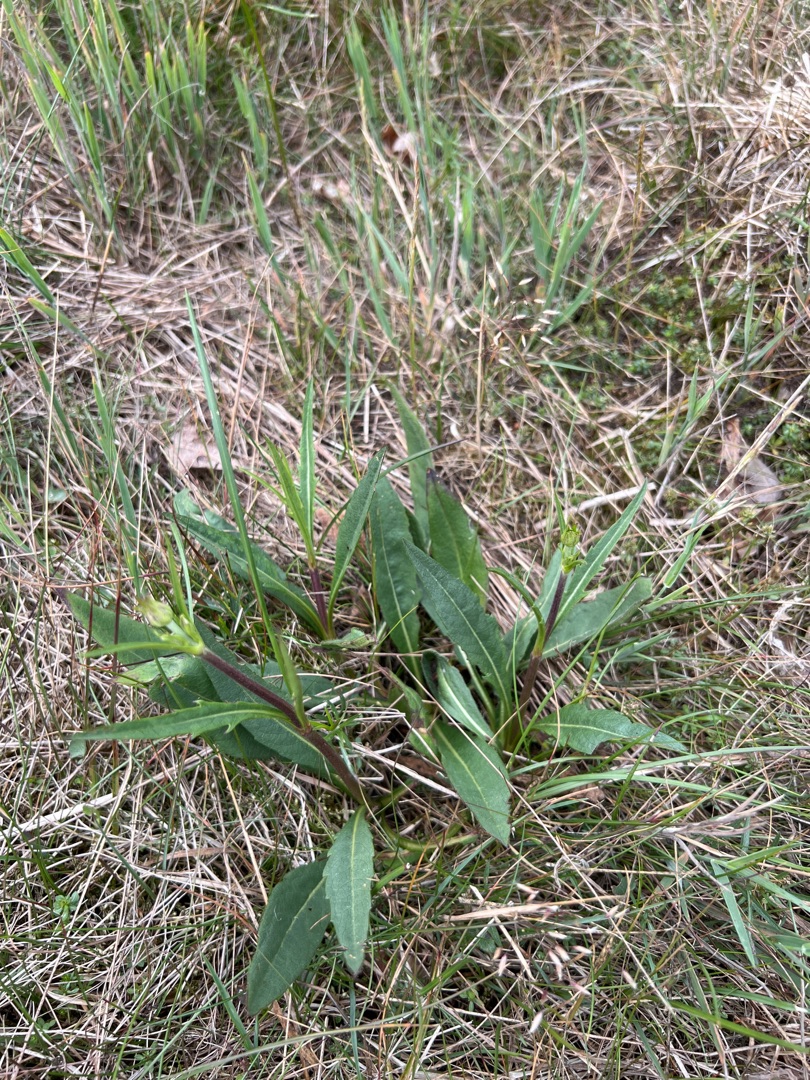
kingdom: Plantae
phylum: Tracheophyta
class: Magnoliopsida
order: Dipsacales
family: Caprifoliaceae
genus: Succisa
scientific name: Succisa pratensis
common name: Djævelsbid
